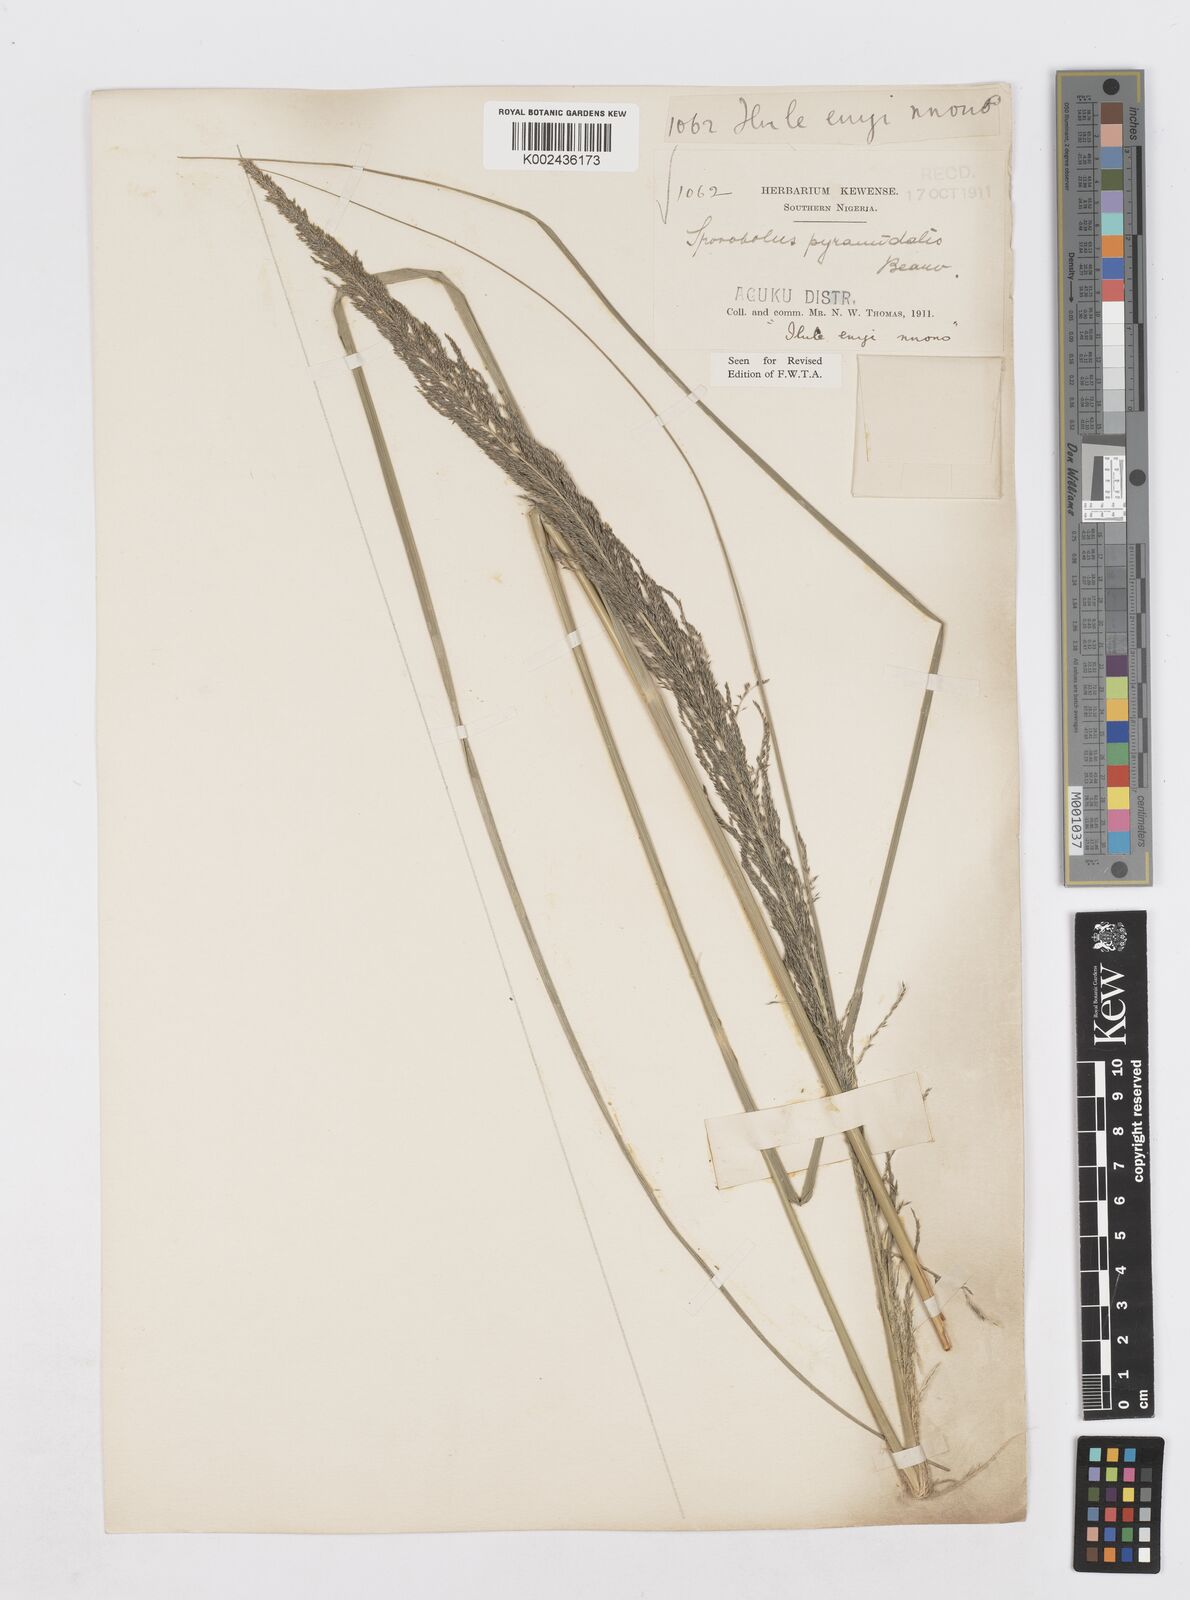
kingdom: Plantae
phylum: Tracheophyta
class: Liliopsida
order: Poales
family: Poaceae
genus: Sporobolus
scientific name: Sporobolus pyramidalis
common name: West indian dropseed
